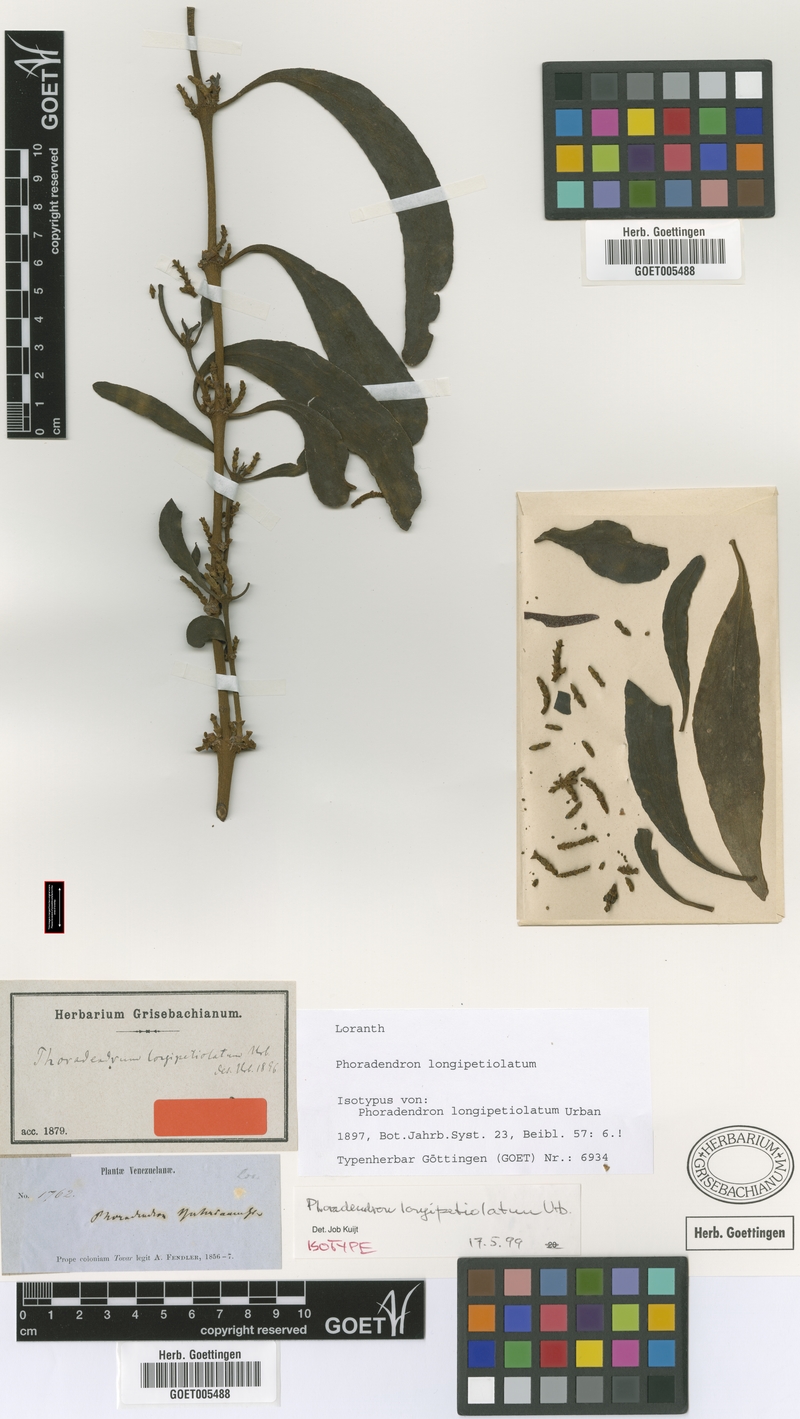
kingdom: Plantae
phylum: Tracheophyta
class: Magnoliopsida
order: Santalales
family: Viscaceae
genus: Phoradendron
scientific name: Phoradendron longipetiolatum
